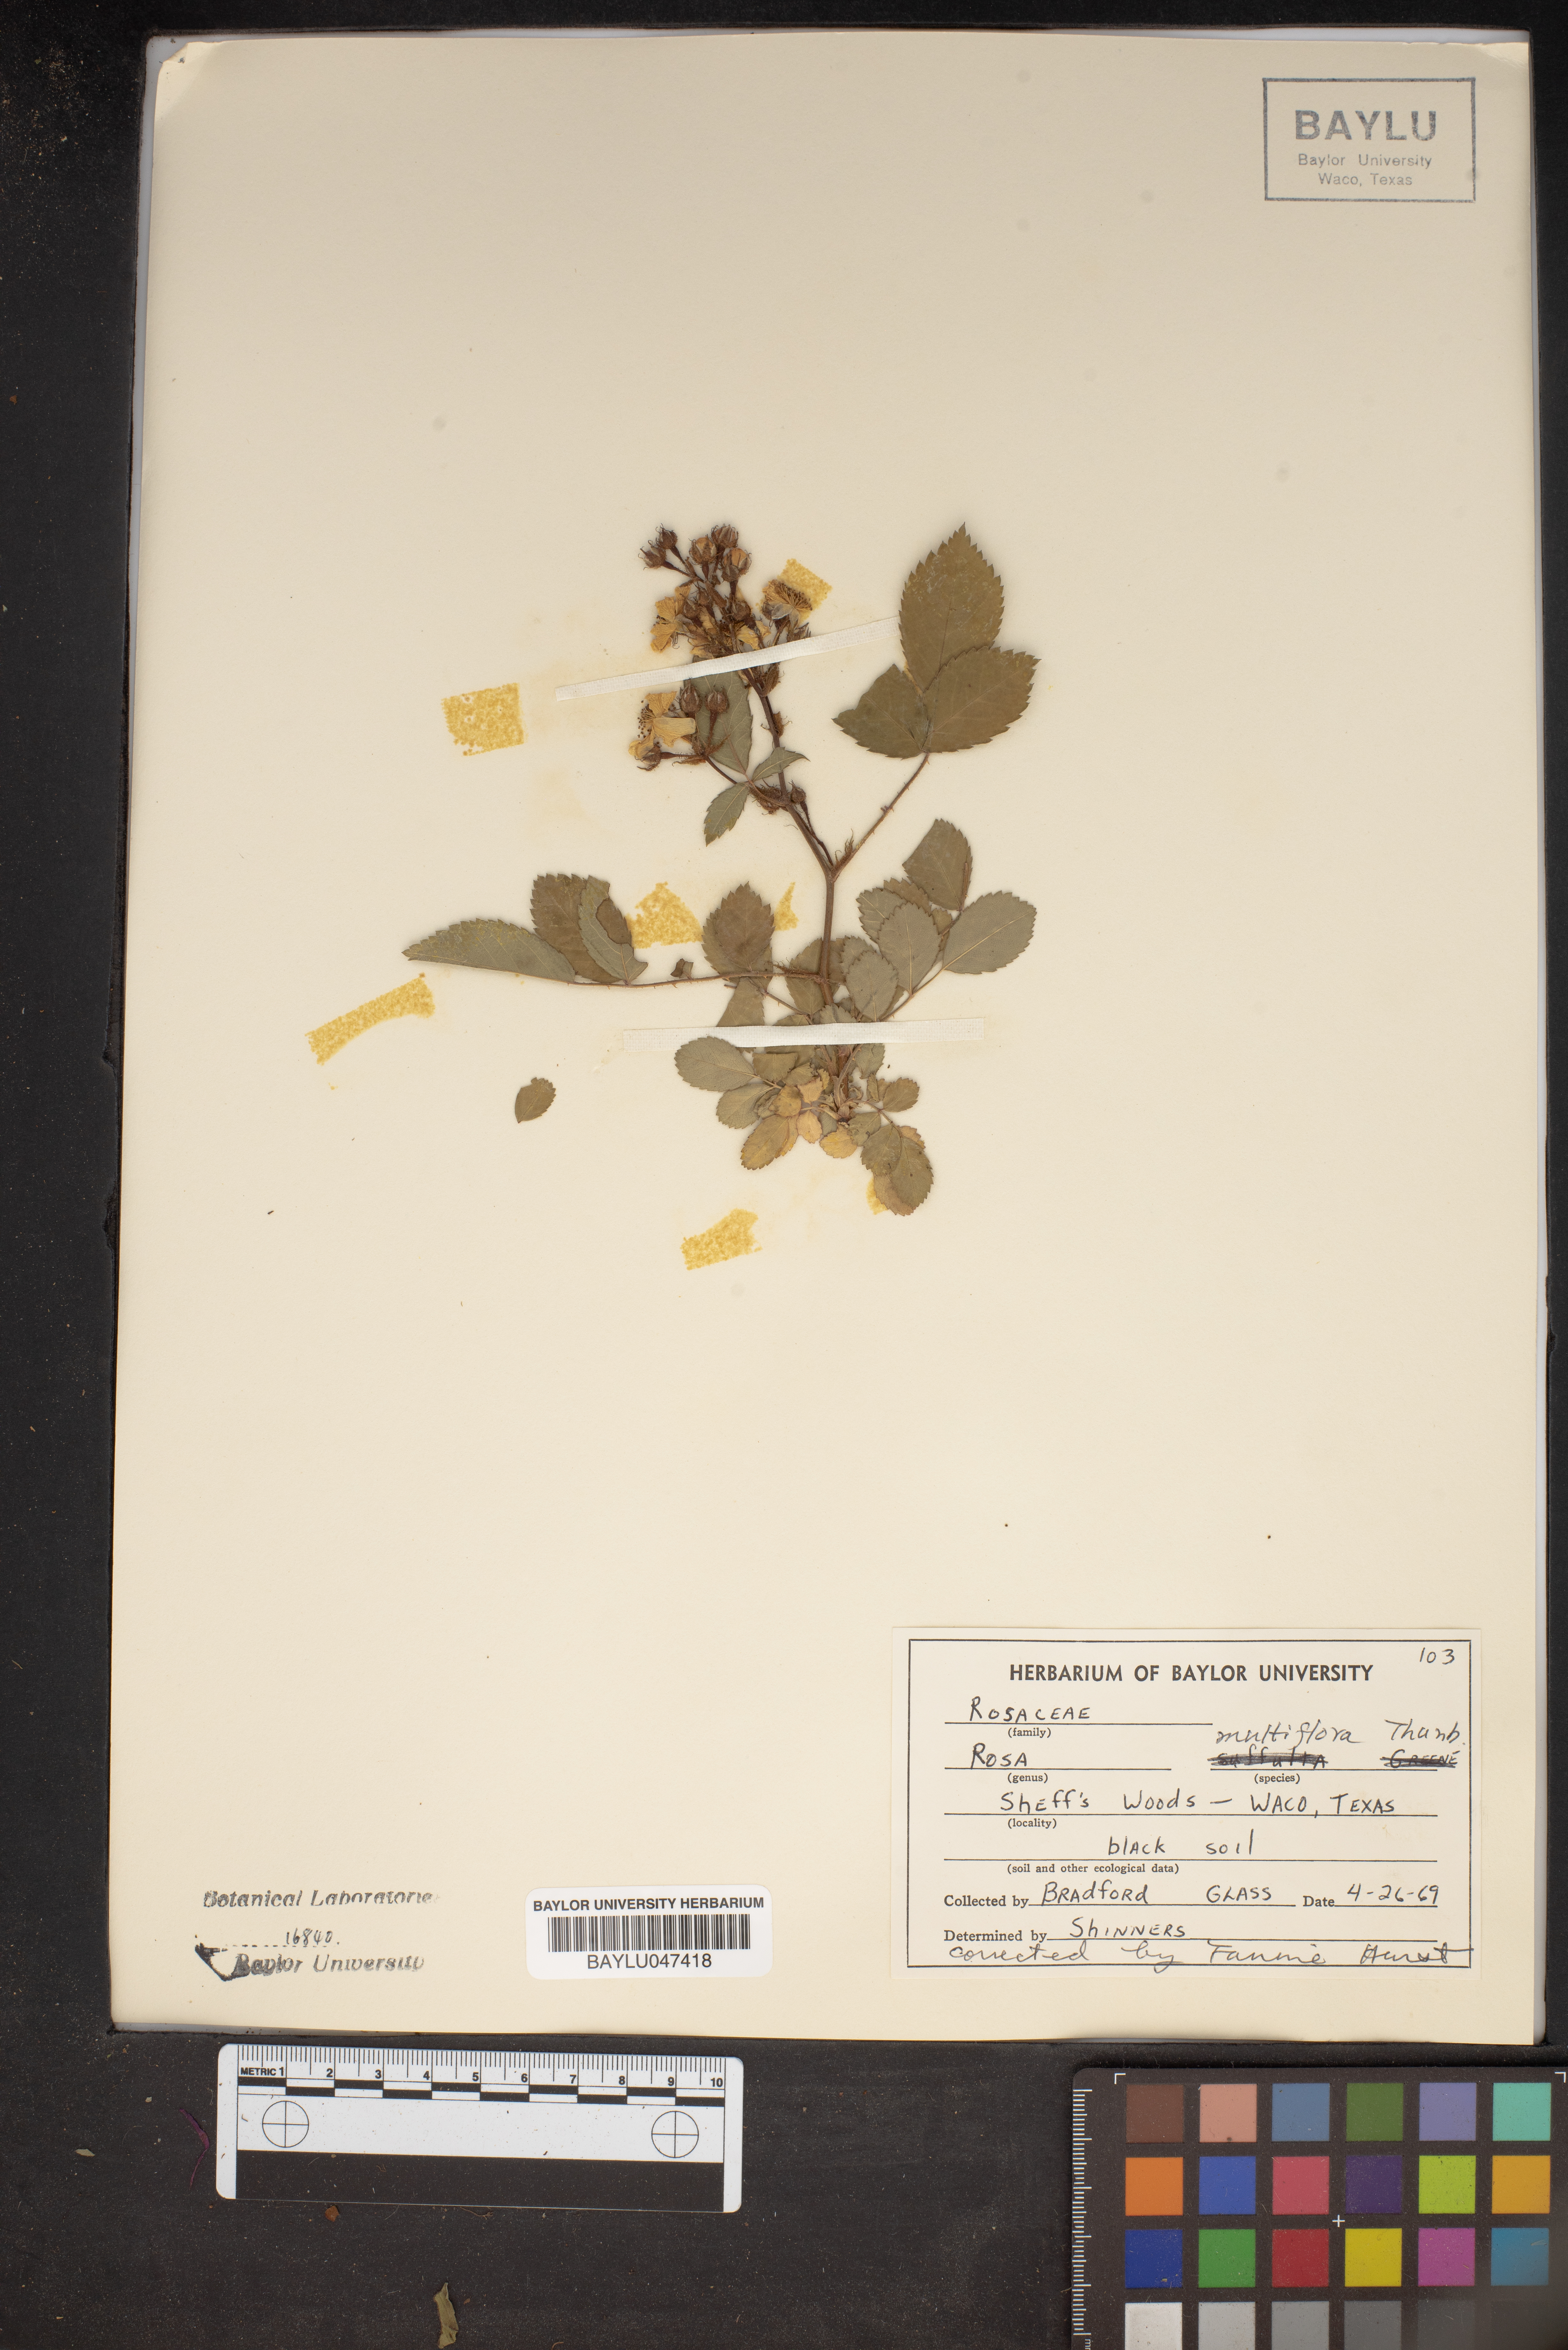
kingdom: Plantae
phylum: Tracheophyta
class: Magnoliopsida
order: Rosales
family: Rosaceae
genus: Rosa
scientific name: Rosa multiflora
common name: Multiflora rose
